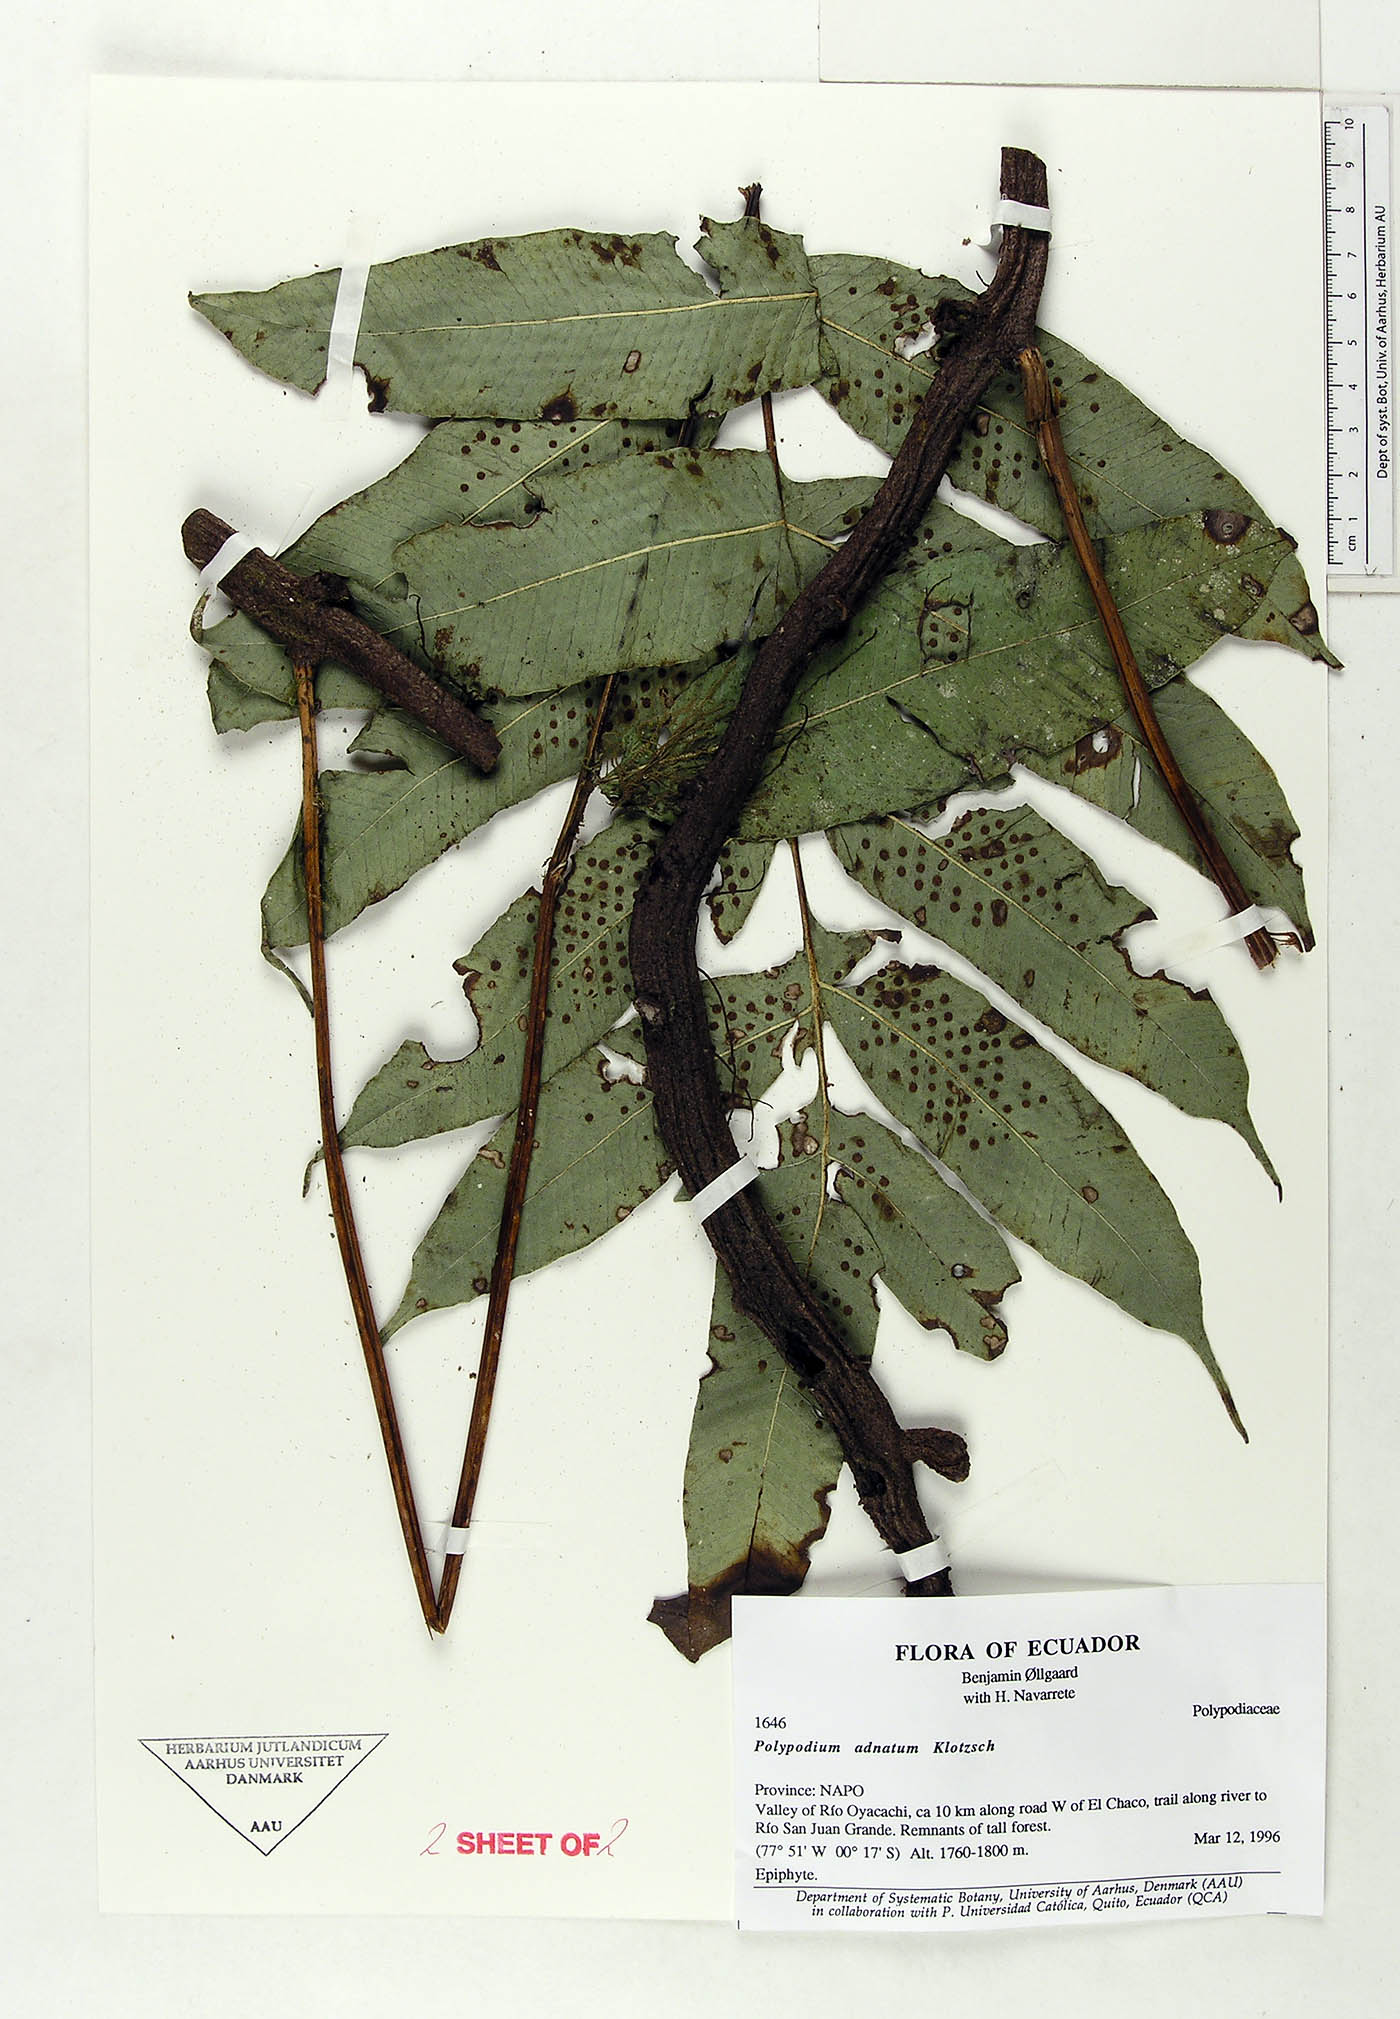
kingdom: Plantae
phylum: Tracheophyta
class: Polypodiopsida
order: Polypodiales
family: Polypodiaceae
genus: Serpocaulon
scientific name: Serpocaulon adnatum
